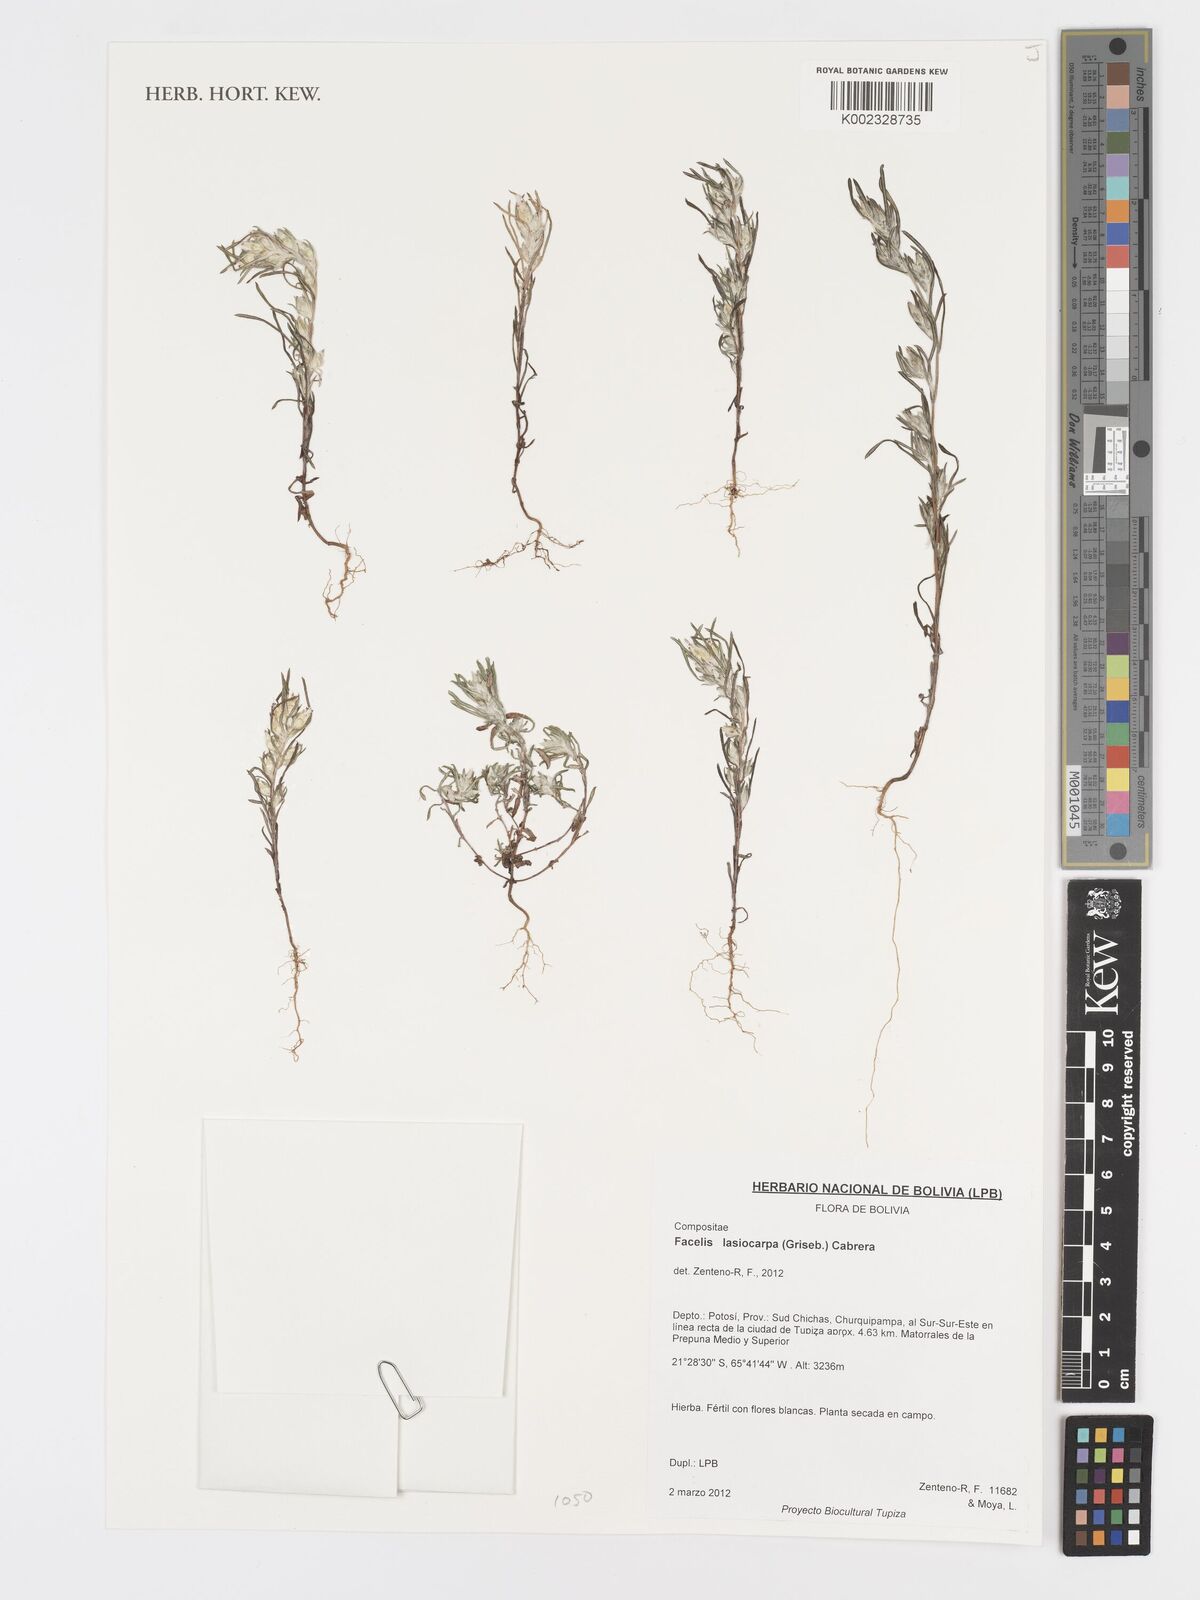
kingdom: Plantae
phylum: Tracheophyta
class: Magnoliopsida
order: Asterales
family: Asteraceae
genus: Facelis
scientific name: Facelis lasiocarpa
